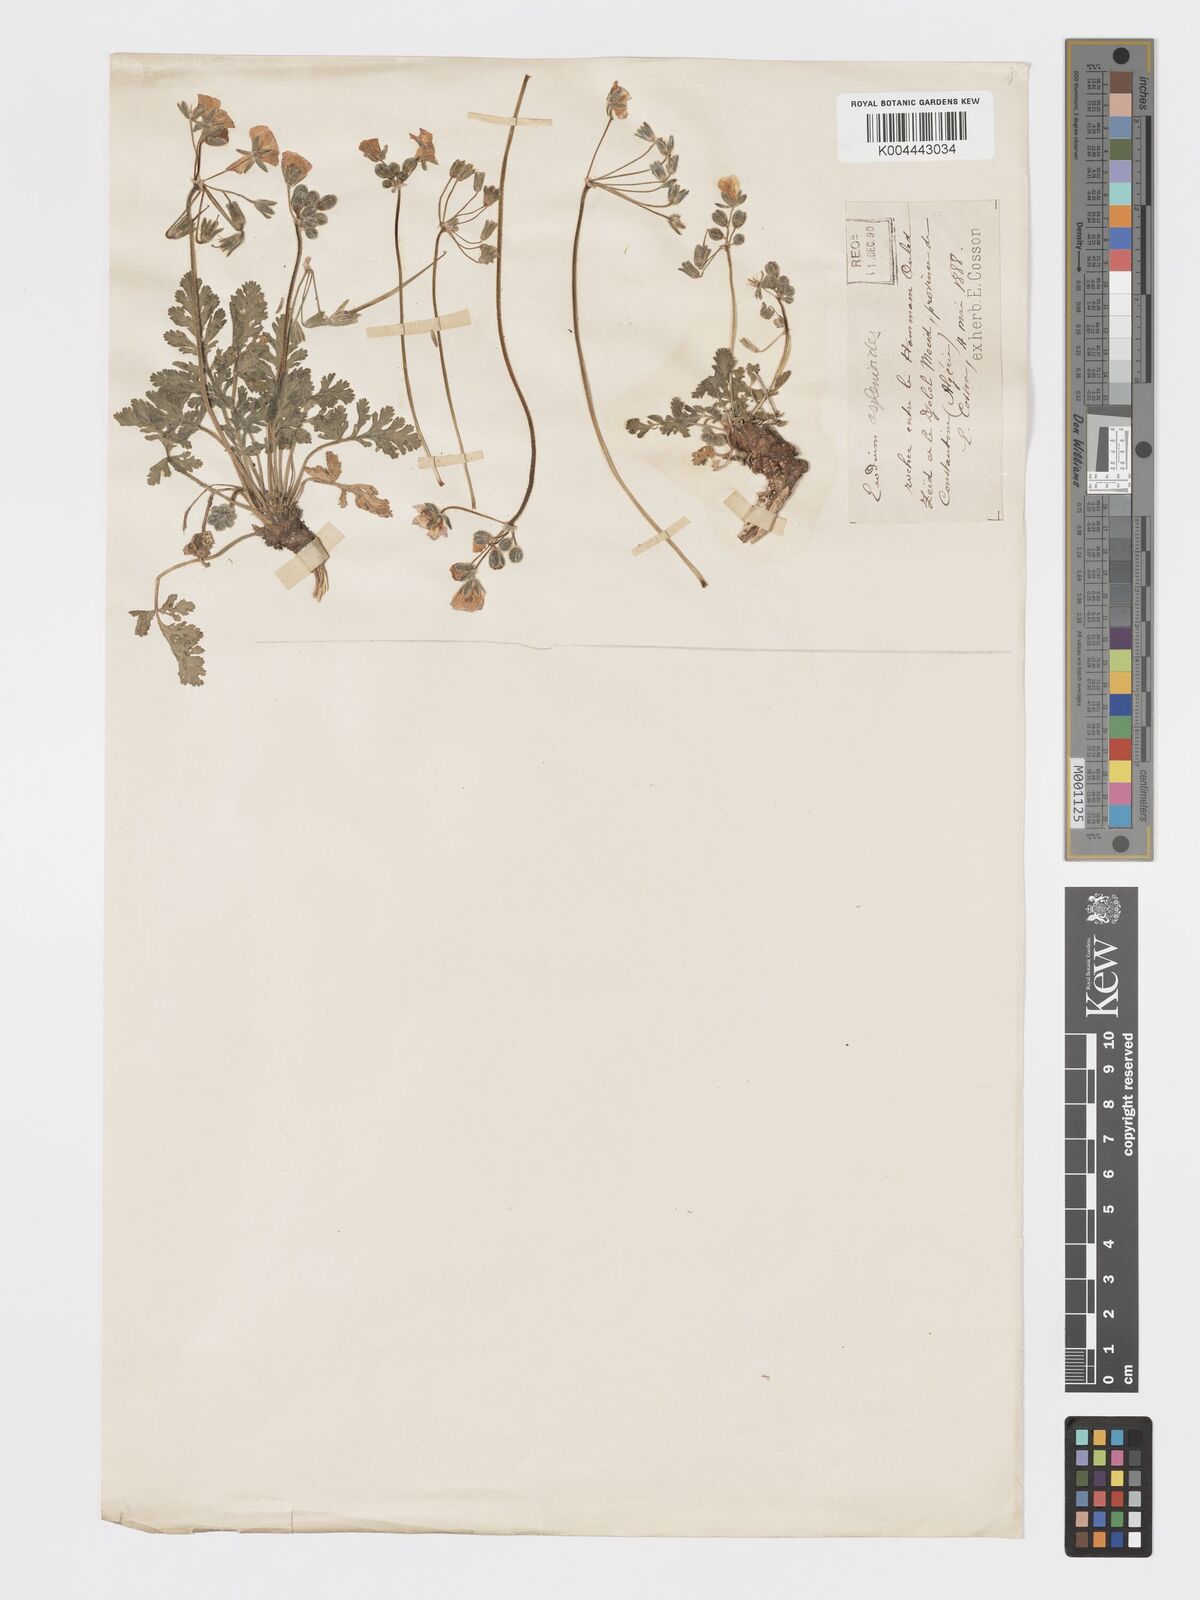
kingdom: Plantae
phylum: Tracheophyta
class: Magnoliopsida
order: Geraniales
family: Geraniaceae
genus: Erodium
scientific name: Erodium
